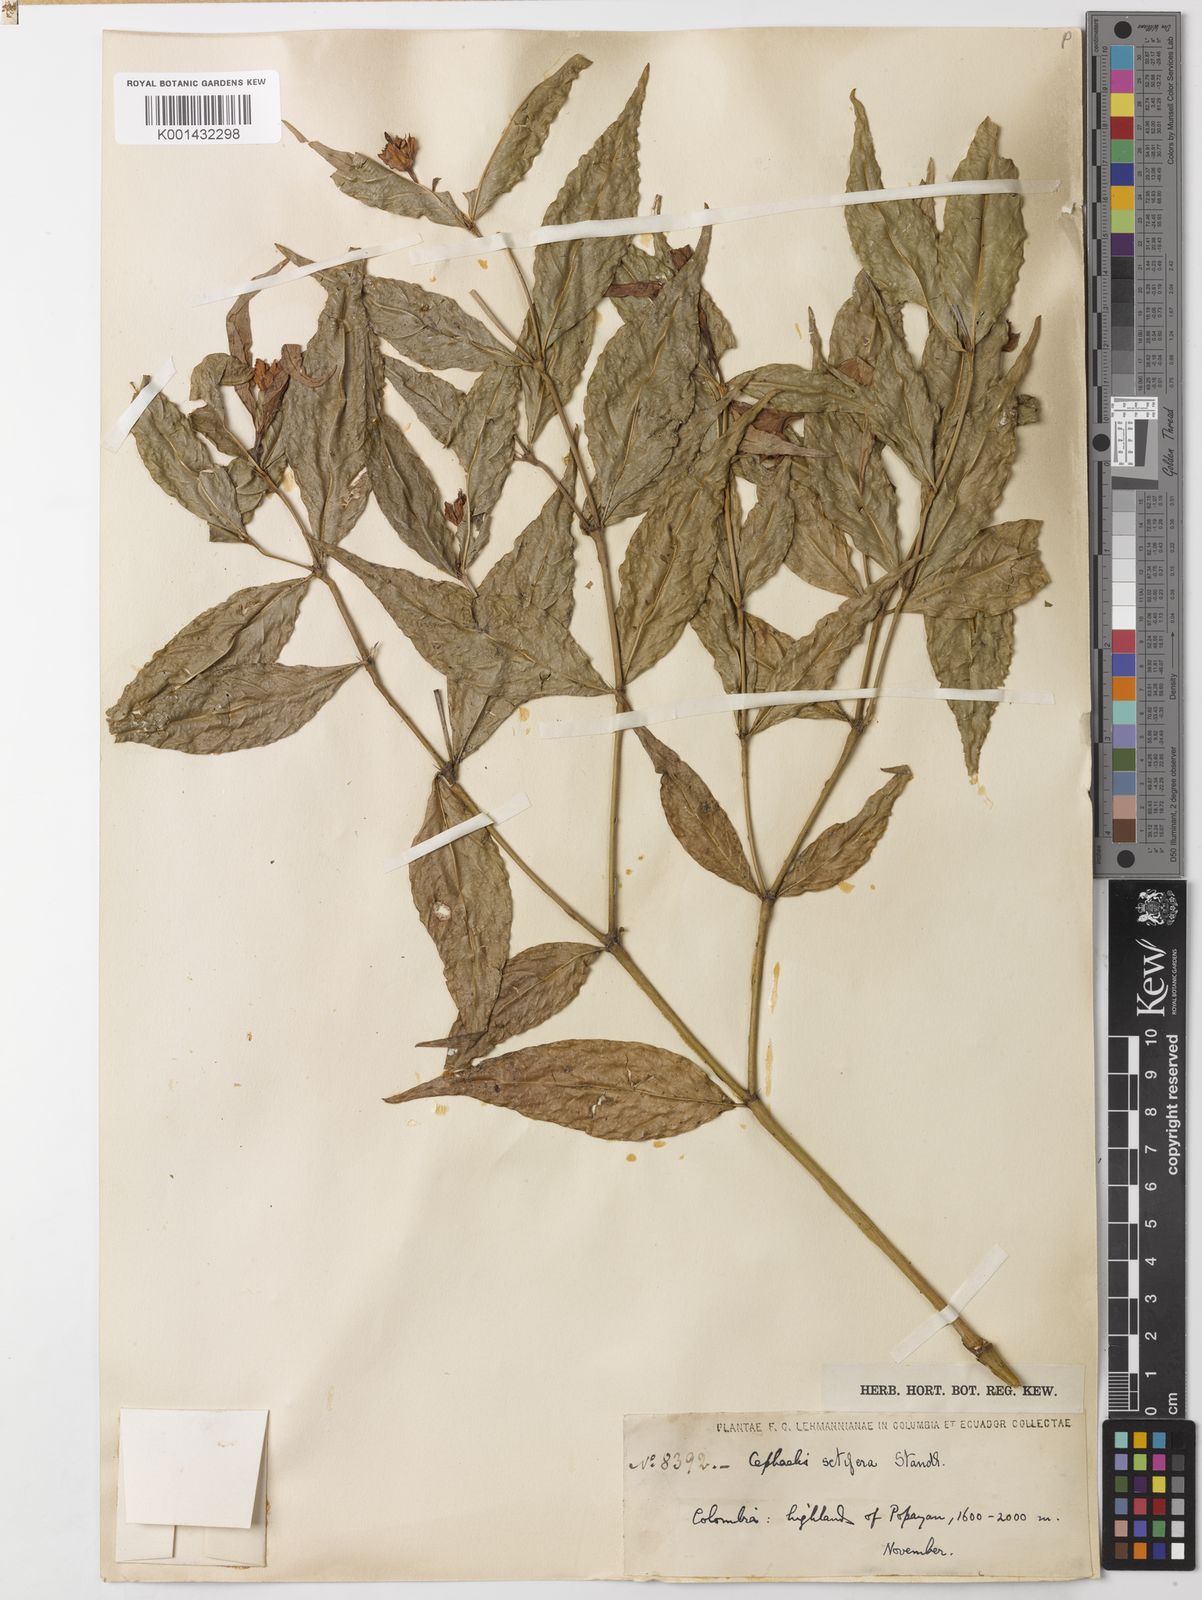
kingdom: Plantae
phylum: Tracheophyta
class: Magnoliopsida
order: Gentianales
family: Rubiaceae
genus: Palicourea
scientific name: Palicourea violacea
